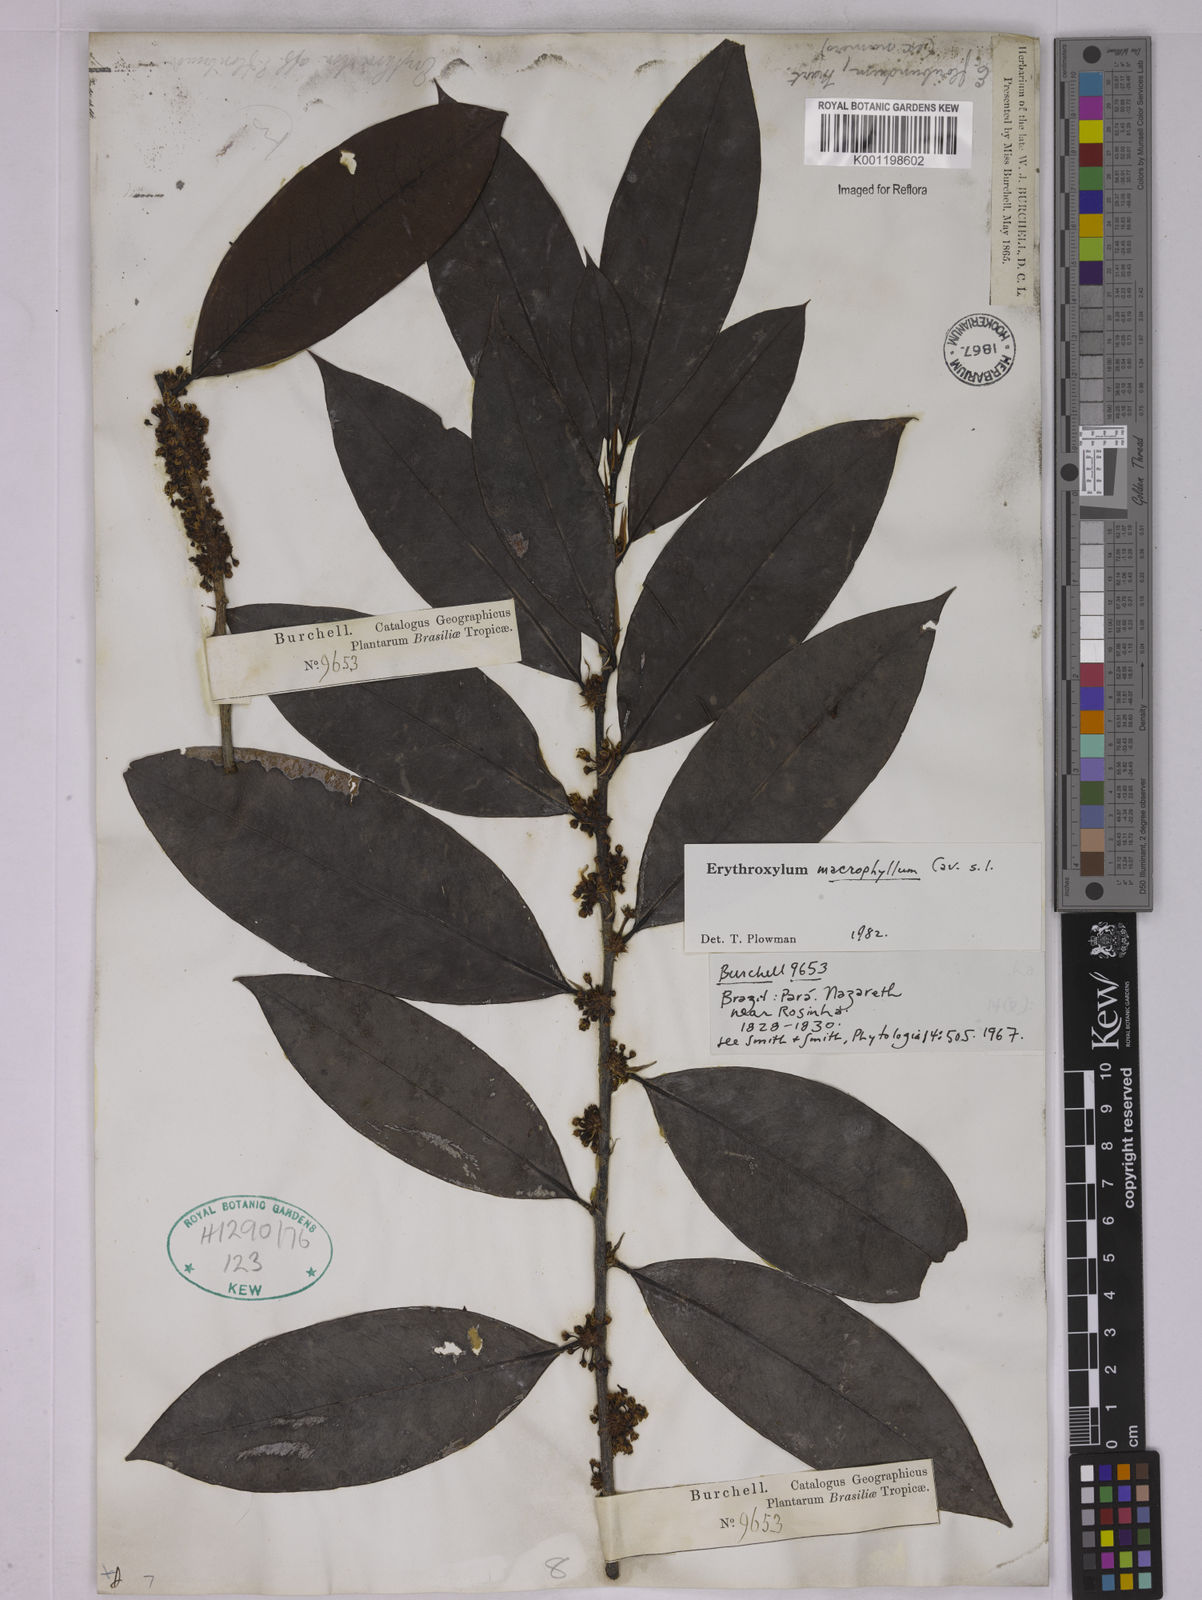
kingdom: Plantae
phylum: Tracheophyta
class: Magnoliopsida
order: Malpighiales
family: Erythroxylaceae
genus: Erythroxylum
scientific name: Erythroxylum macrophyllum
